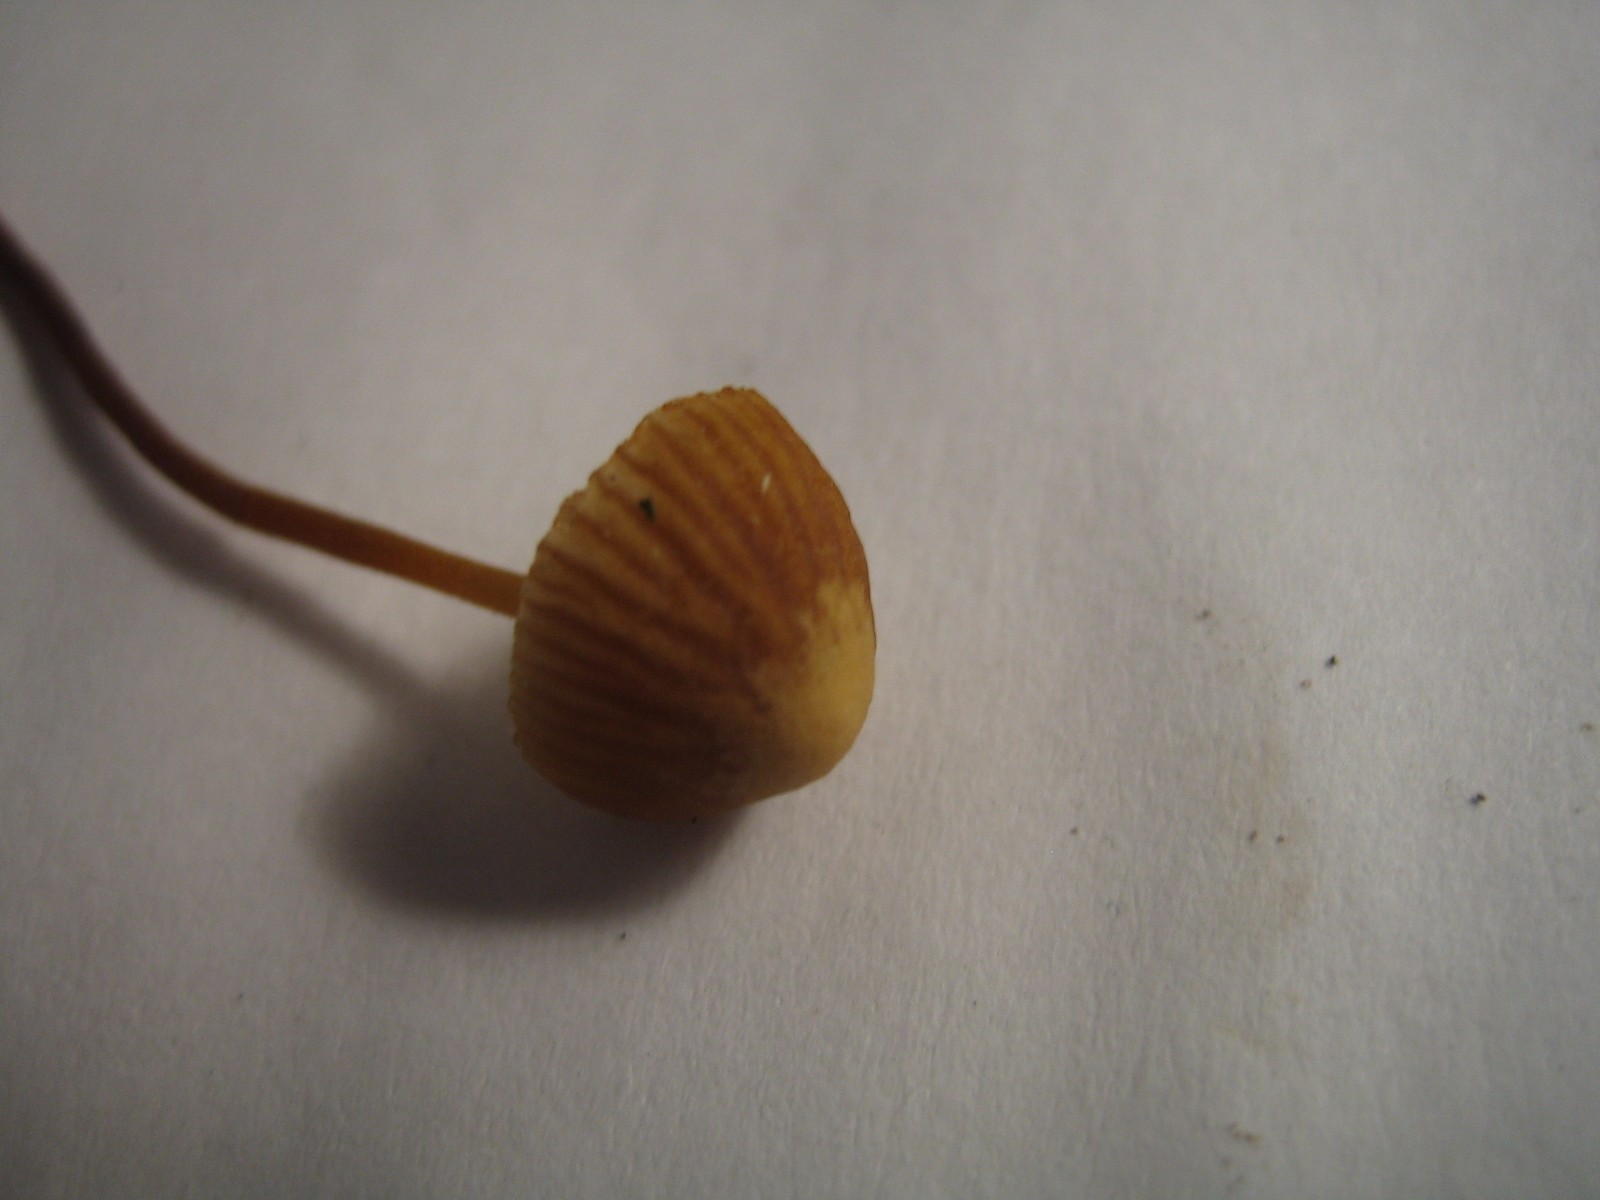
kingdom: Fungi
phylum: Basidiomycota
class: Agaricomycetes
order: Agaricales
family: Hymenogastraceae
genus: Galerina
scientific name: Galerina
